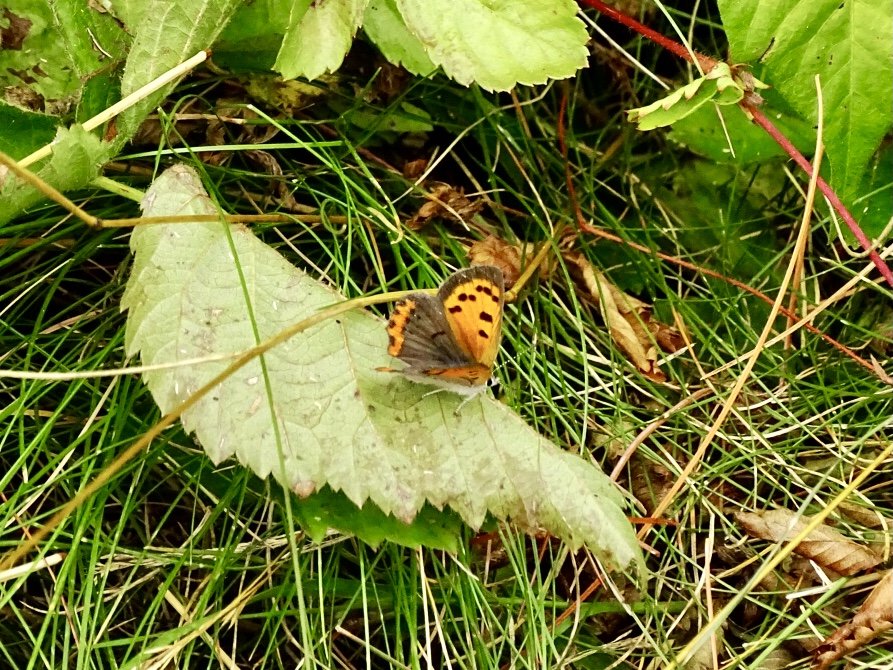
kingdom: Animalia
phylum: Arthropoda
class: Insecta
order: Lepidoptera
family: Lycaenidae
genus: Lycaena
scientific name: Lycaena phlaeas
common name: American Copper
